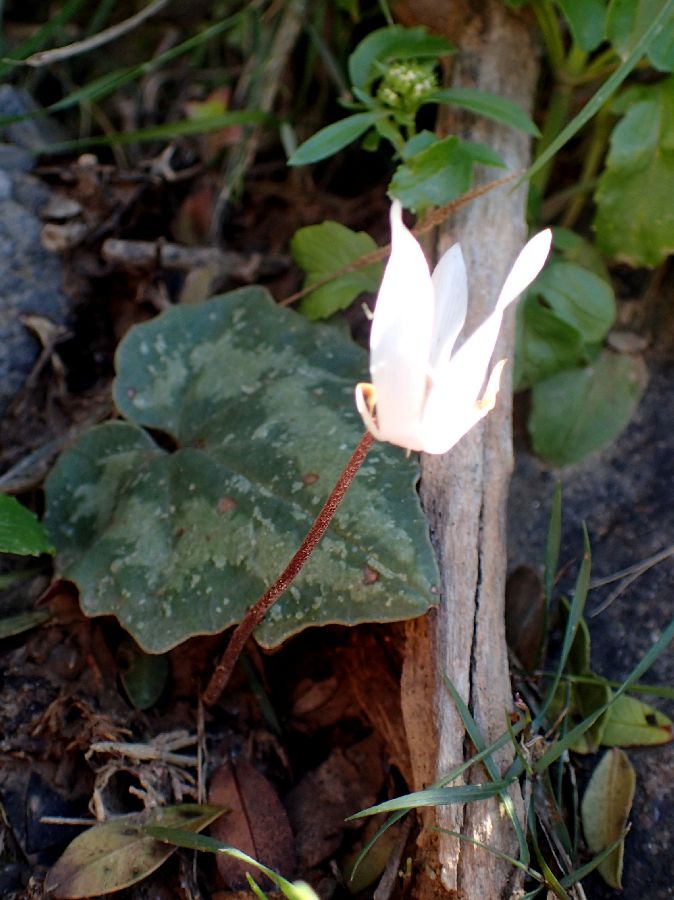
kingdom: Plantae
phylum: Tracheophyta
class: Magnoliopsida
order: Ericales
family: Primulaceae
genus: Cyclamen
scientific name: Cyclamen creticum
